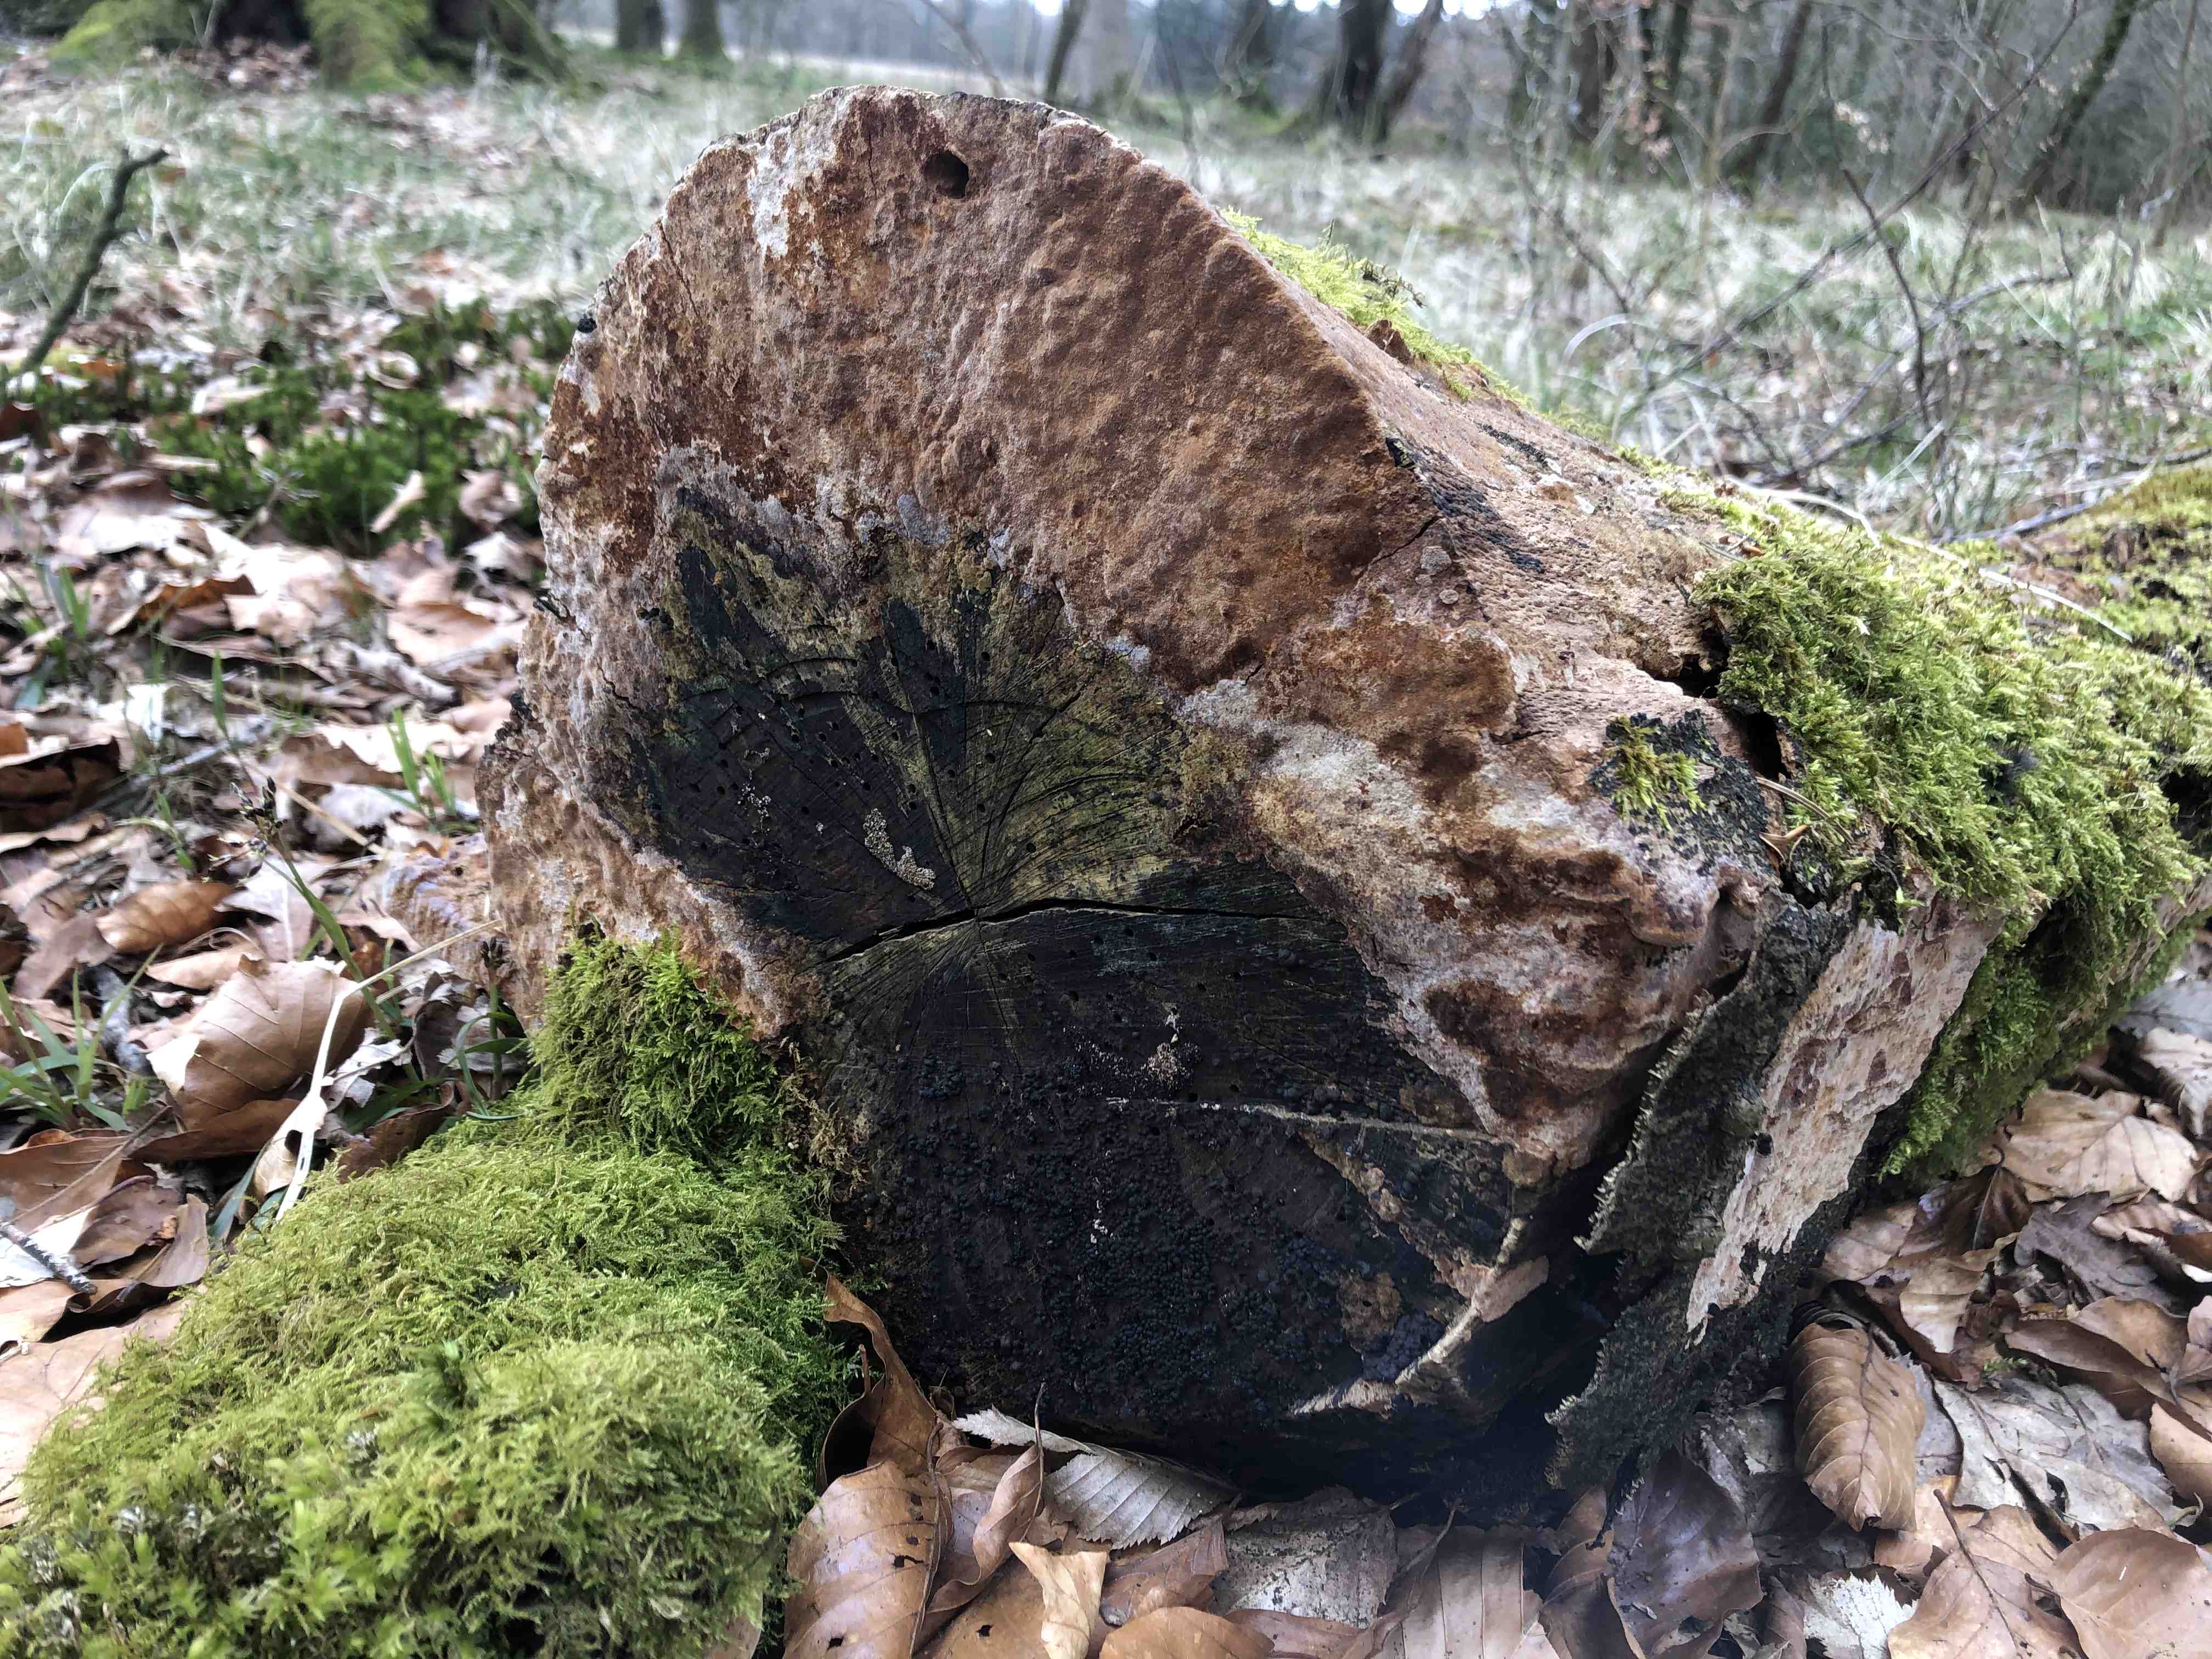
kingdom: Fungi
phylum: Basidiomycota
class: Agaricomycetes
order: Polyporales
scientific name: Polyporales
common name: poresvampordenen
